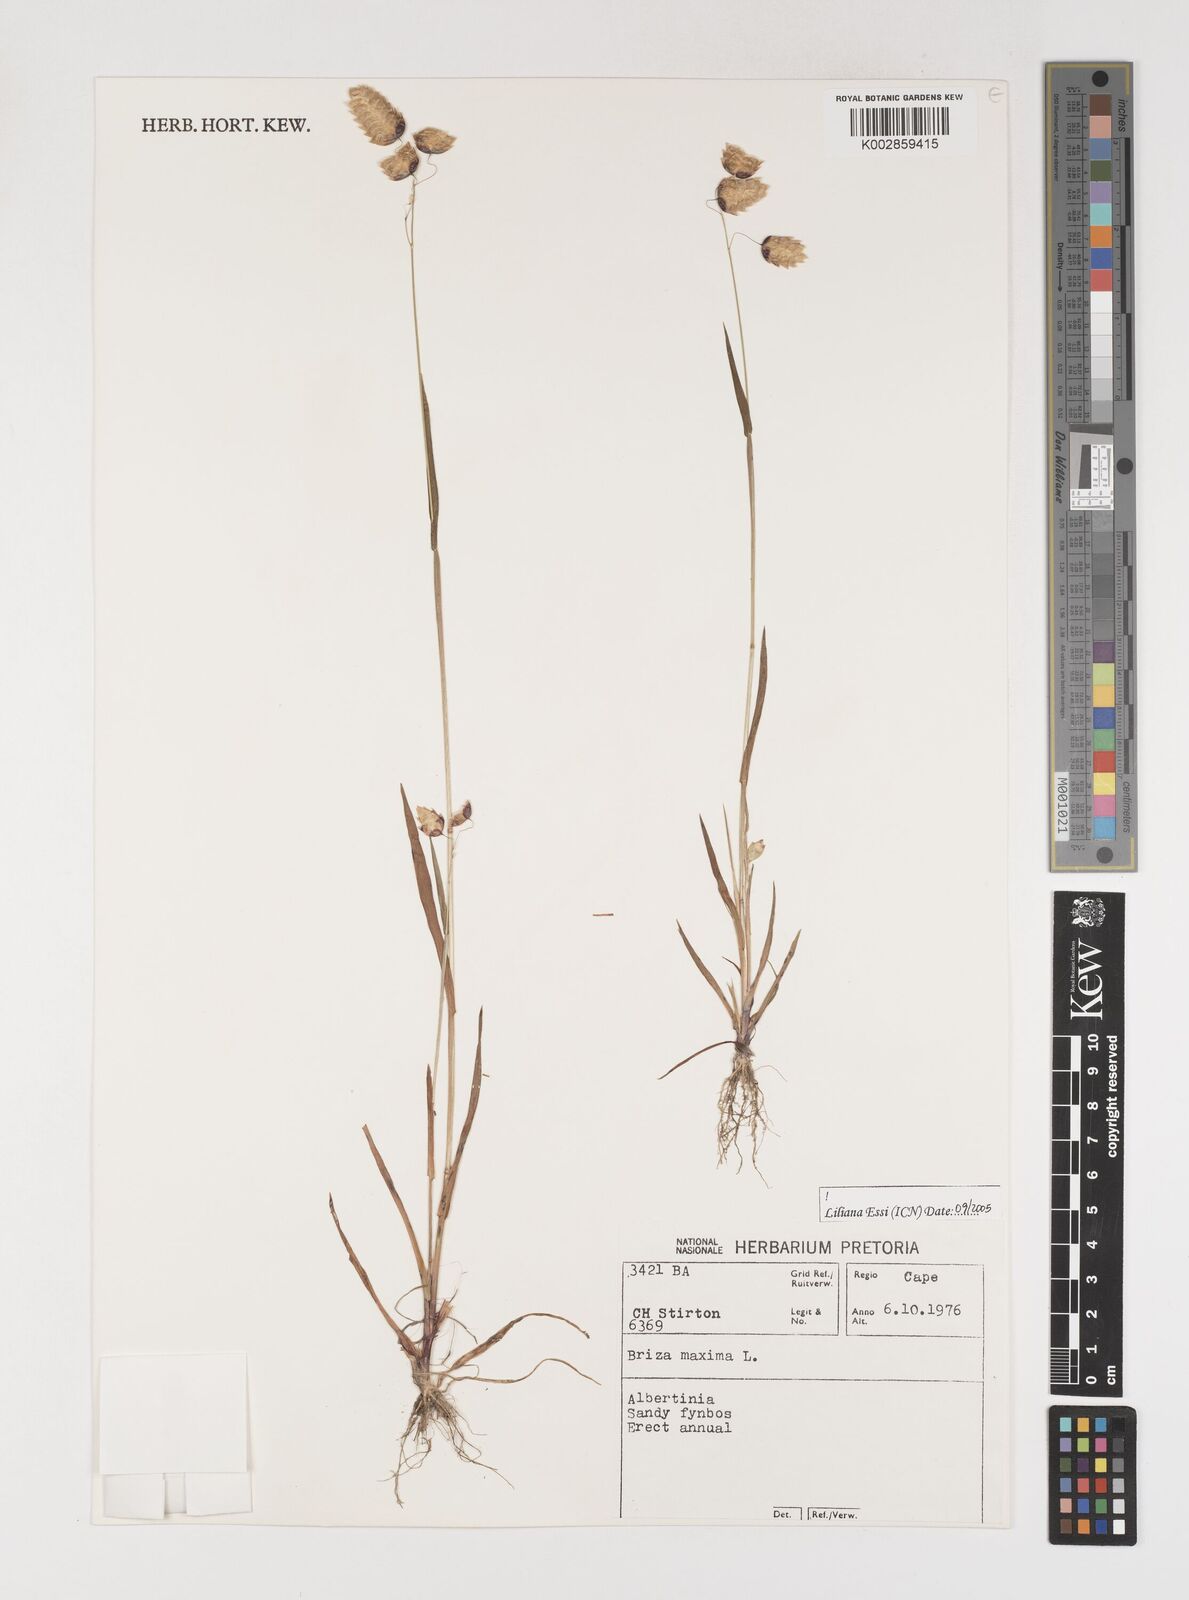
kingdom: Plantae
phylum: Tracheophyta
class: Liliopsida
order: Poales
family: Poaceae
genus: Briza
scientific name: Briza maxima
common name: Big quakinggrass
